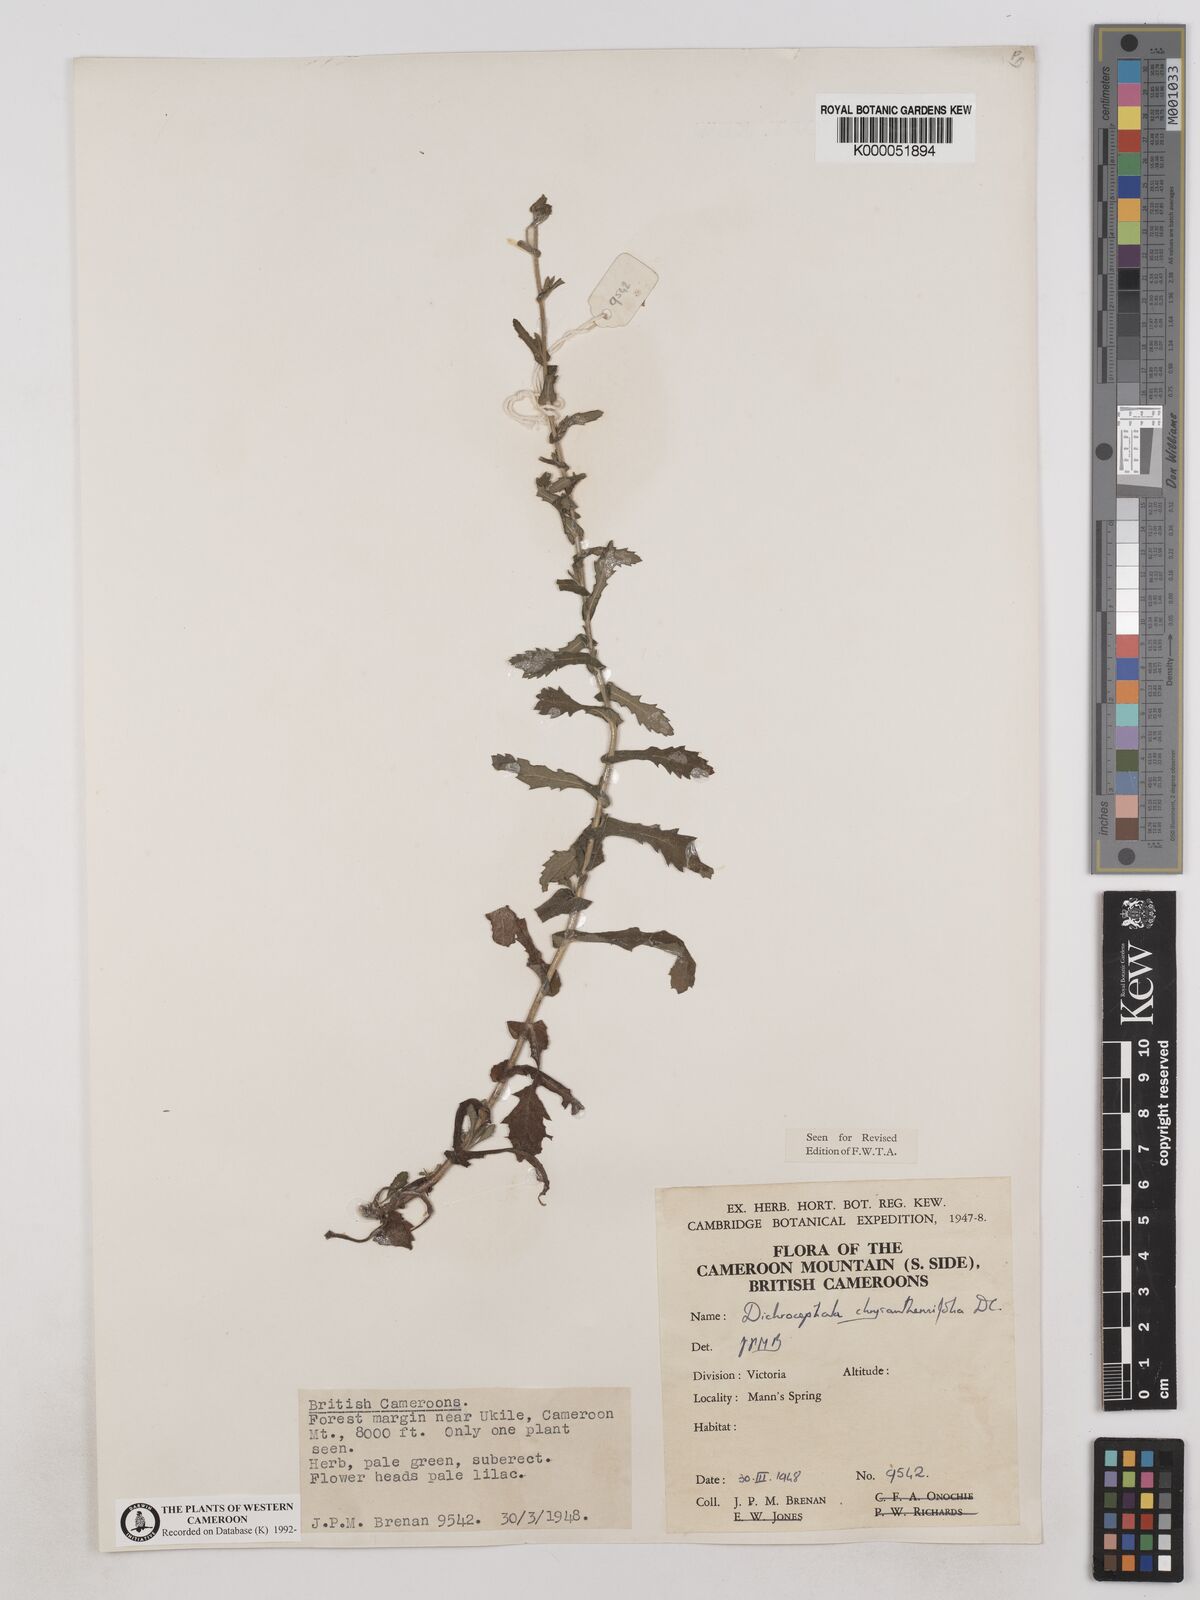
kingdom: Plantae
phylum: Tracheophyta
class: Magnoliopsida
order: Asterales
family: Asteraceae
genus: Dichrocephala
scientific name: Dichrocephala chrysanthemifolia
